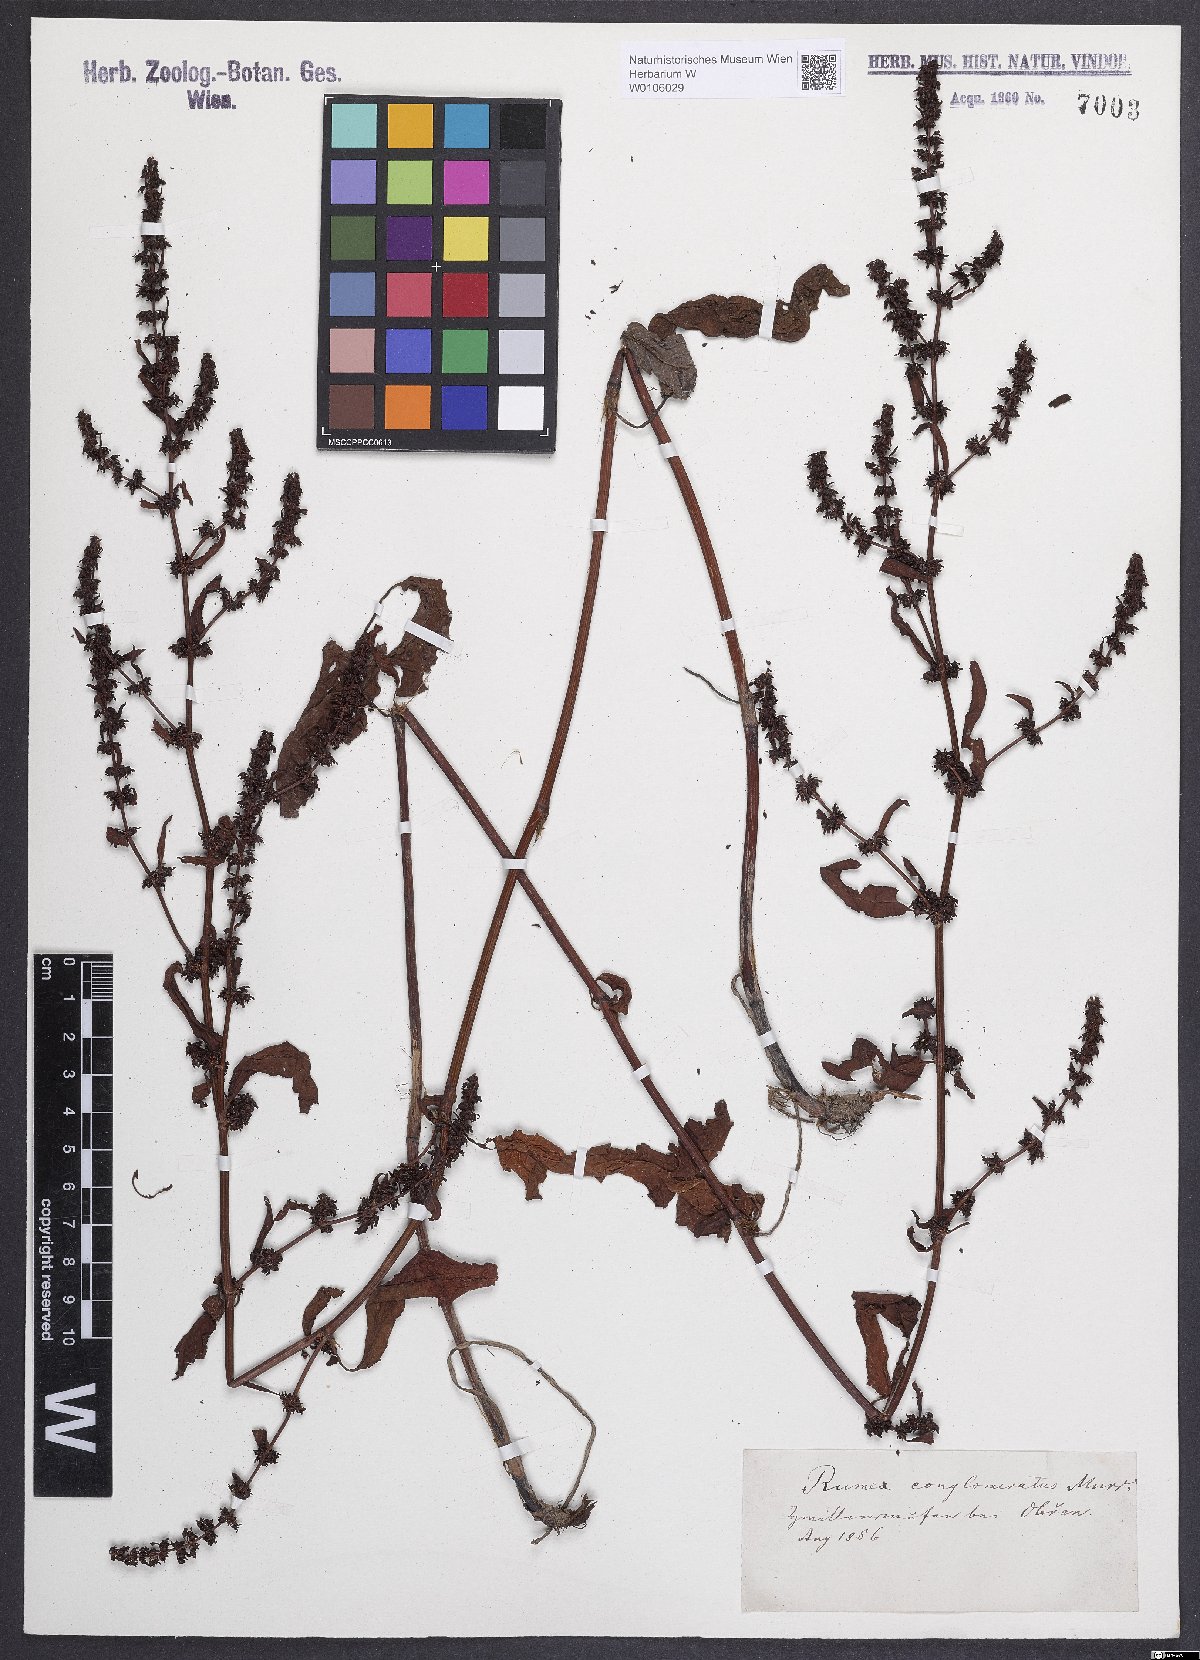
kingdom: Plantae
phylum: Tracheophyta
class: Magnoliopsida
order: Caryophyllales
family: Polygonaceae
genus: Rumex
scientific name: Rumex conglomeratus
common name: Clustered dock
